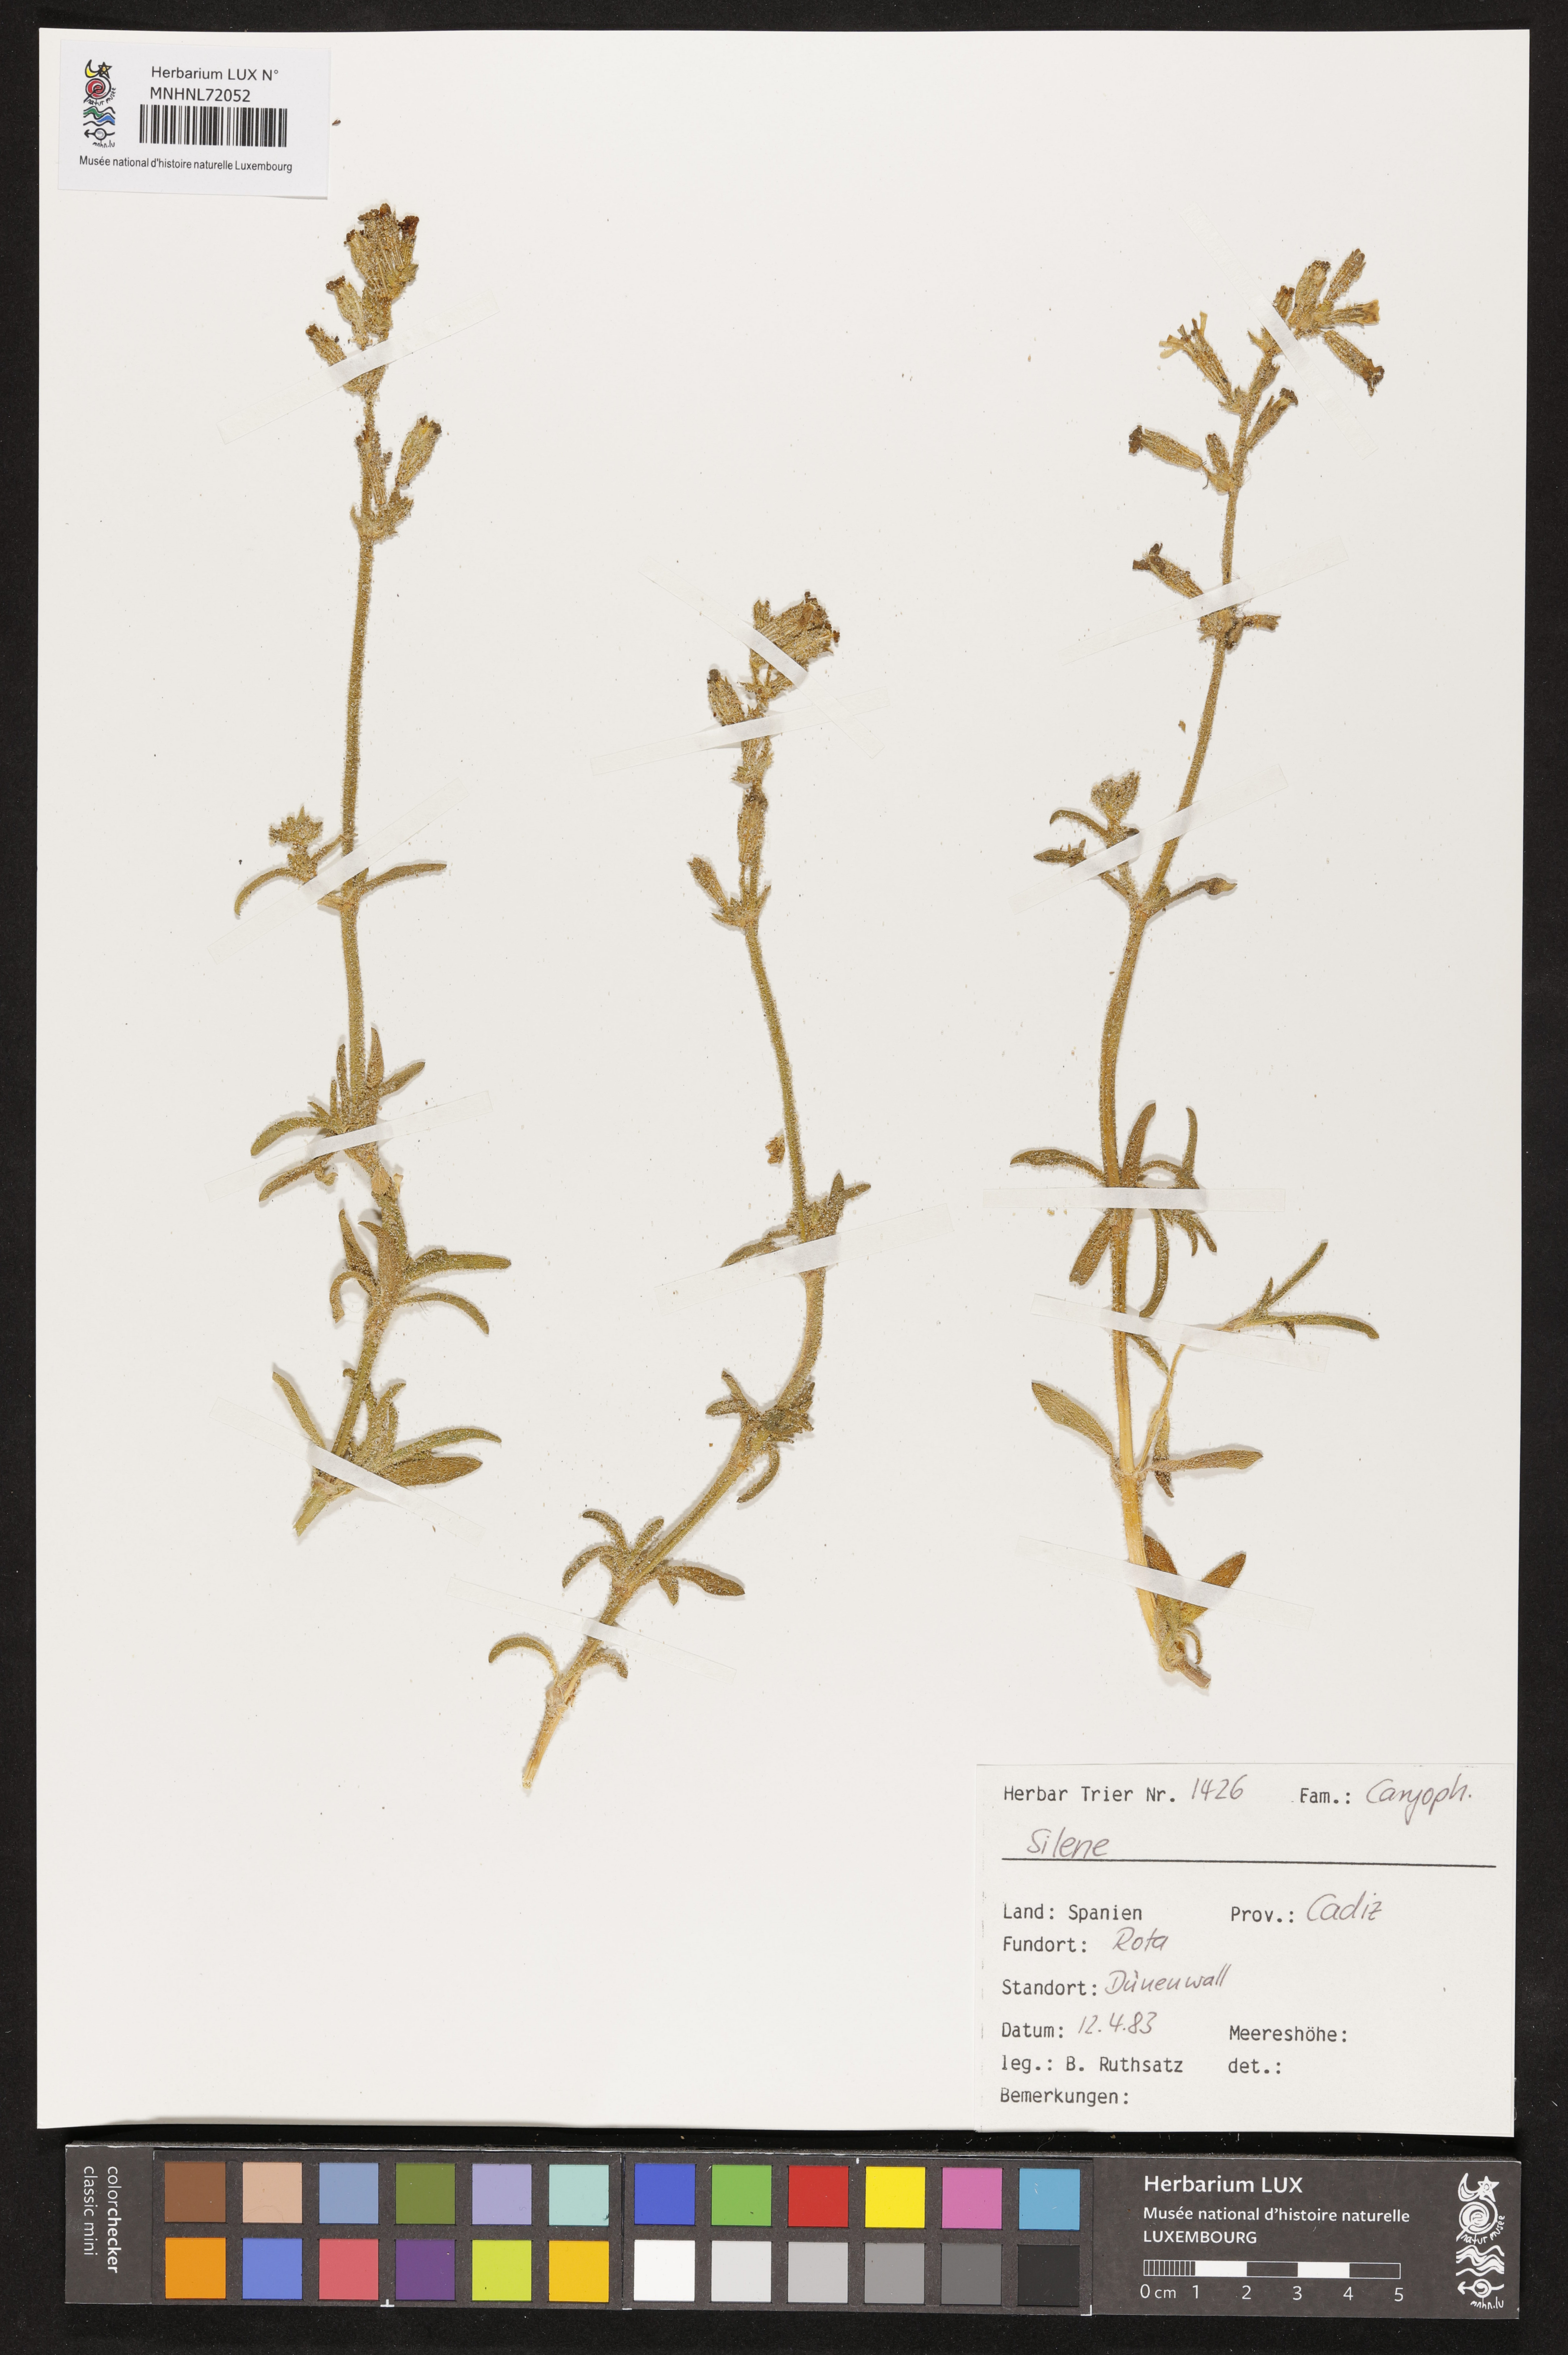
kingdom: Plantae
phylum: Tracheophyta
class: Magnoliopsida
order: Caryophyllales
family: Caryophyllaceae
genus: Silene
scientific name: Silene
